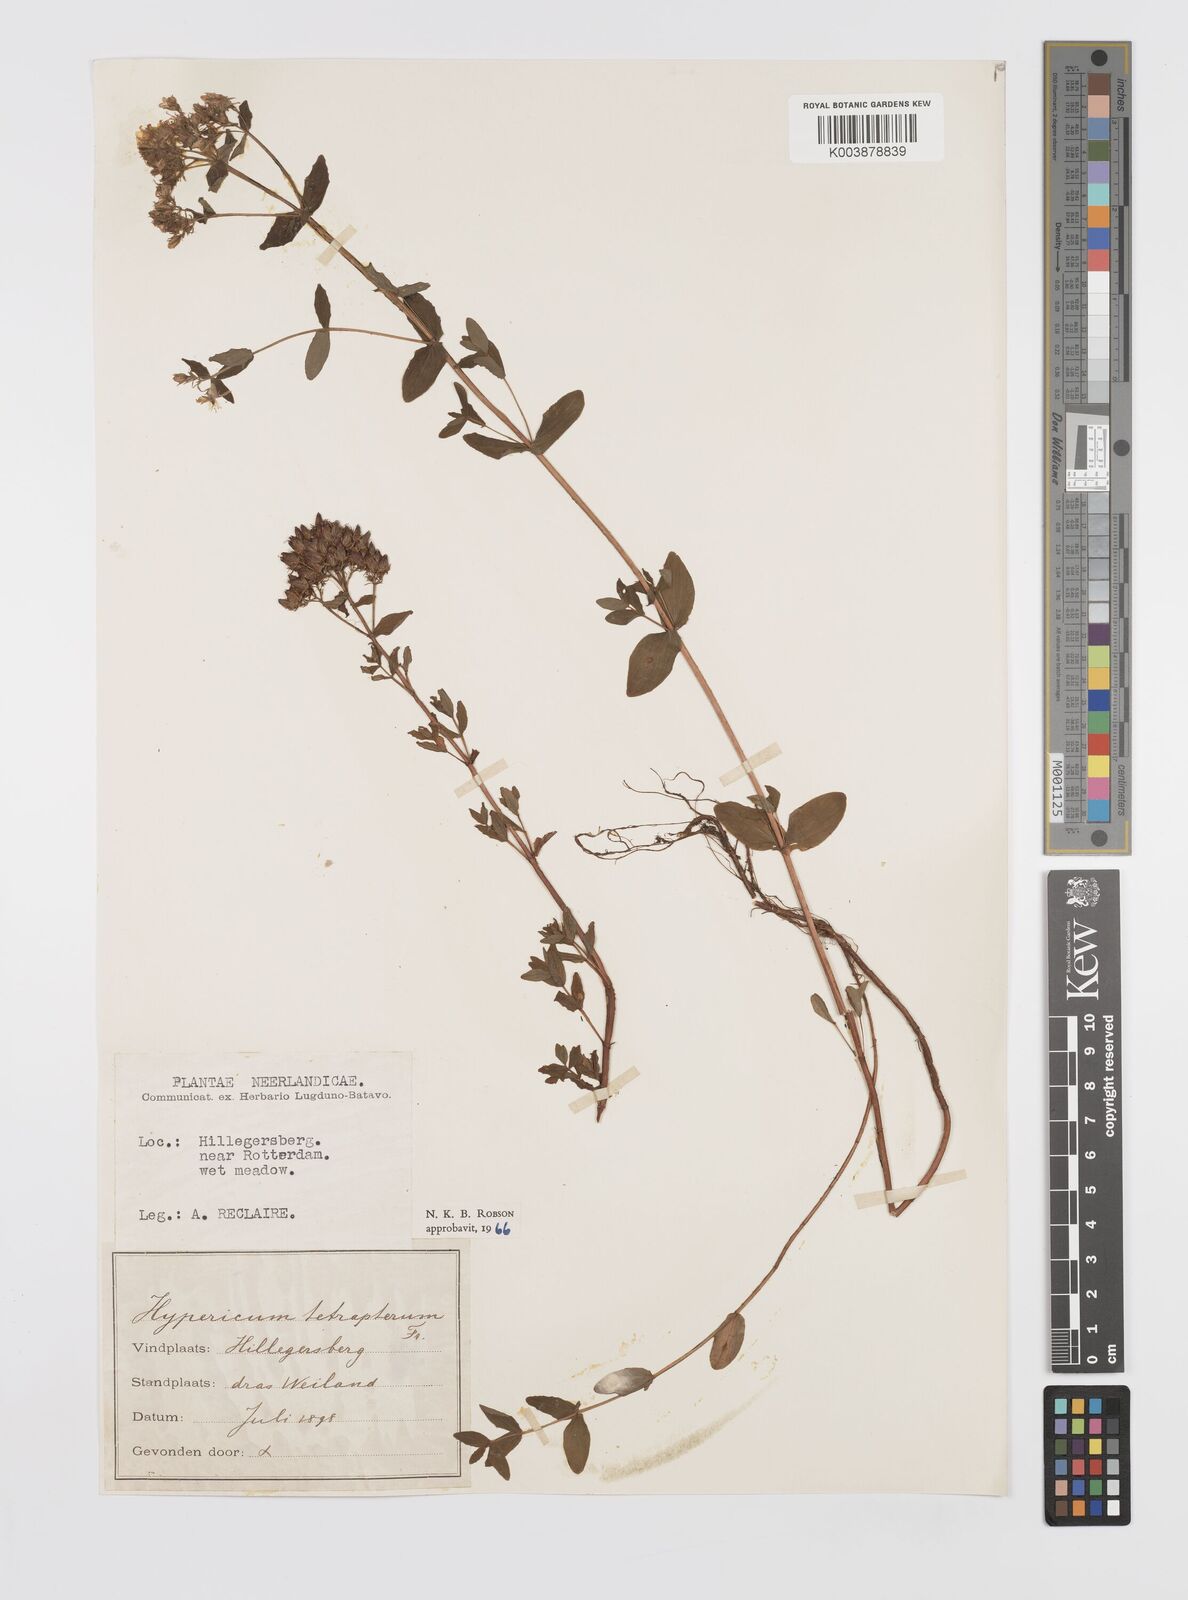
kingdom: Plantae
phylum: Tracheophyta
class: Magnoliopsida
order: Malpighiales
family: Hypericaceae
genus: Hypericum
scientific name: Hypericum tetrapterum
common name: Square-stalked st. john's-wort
